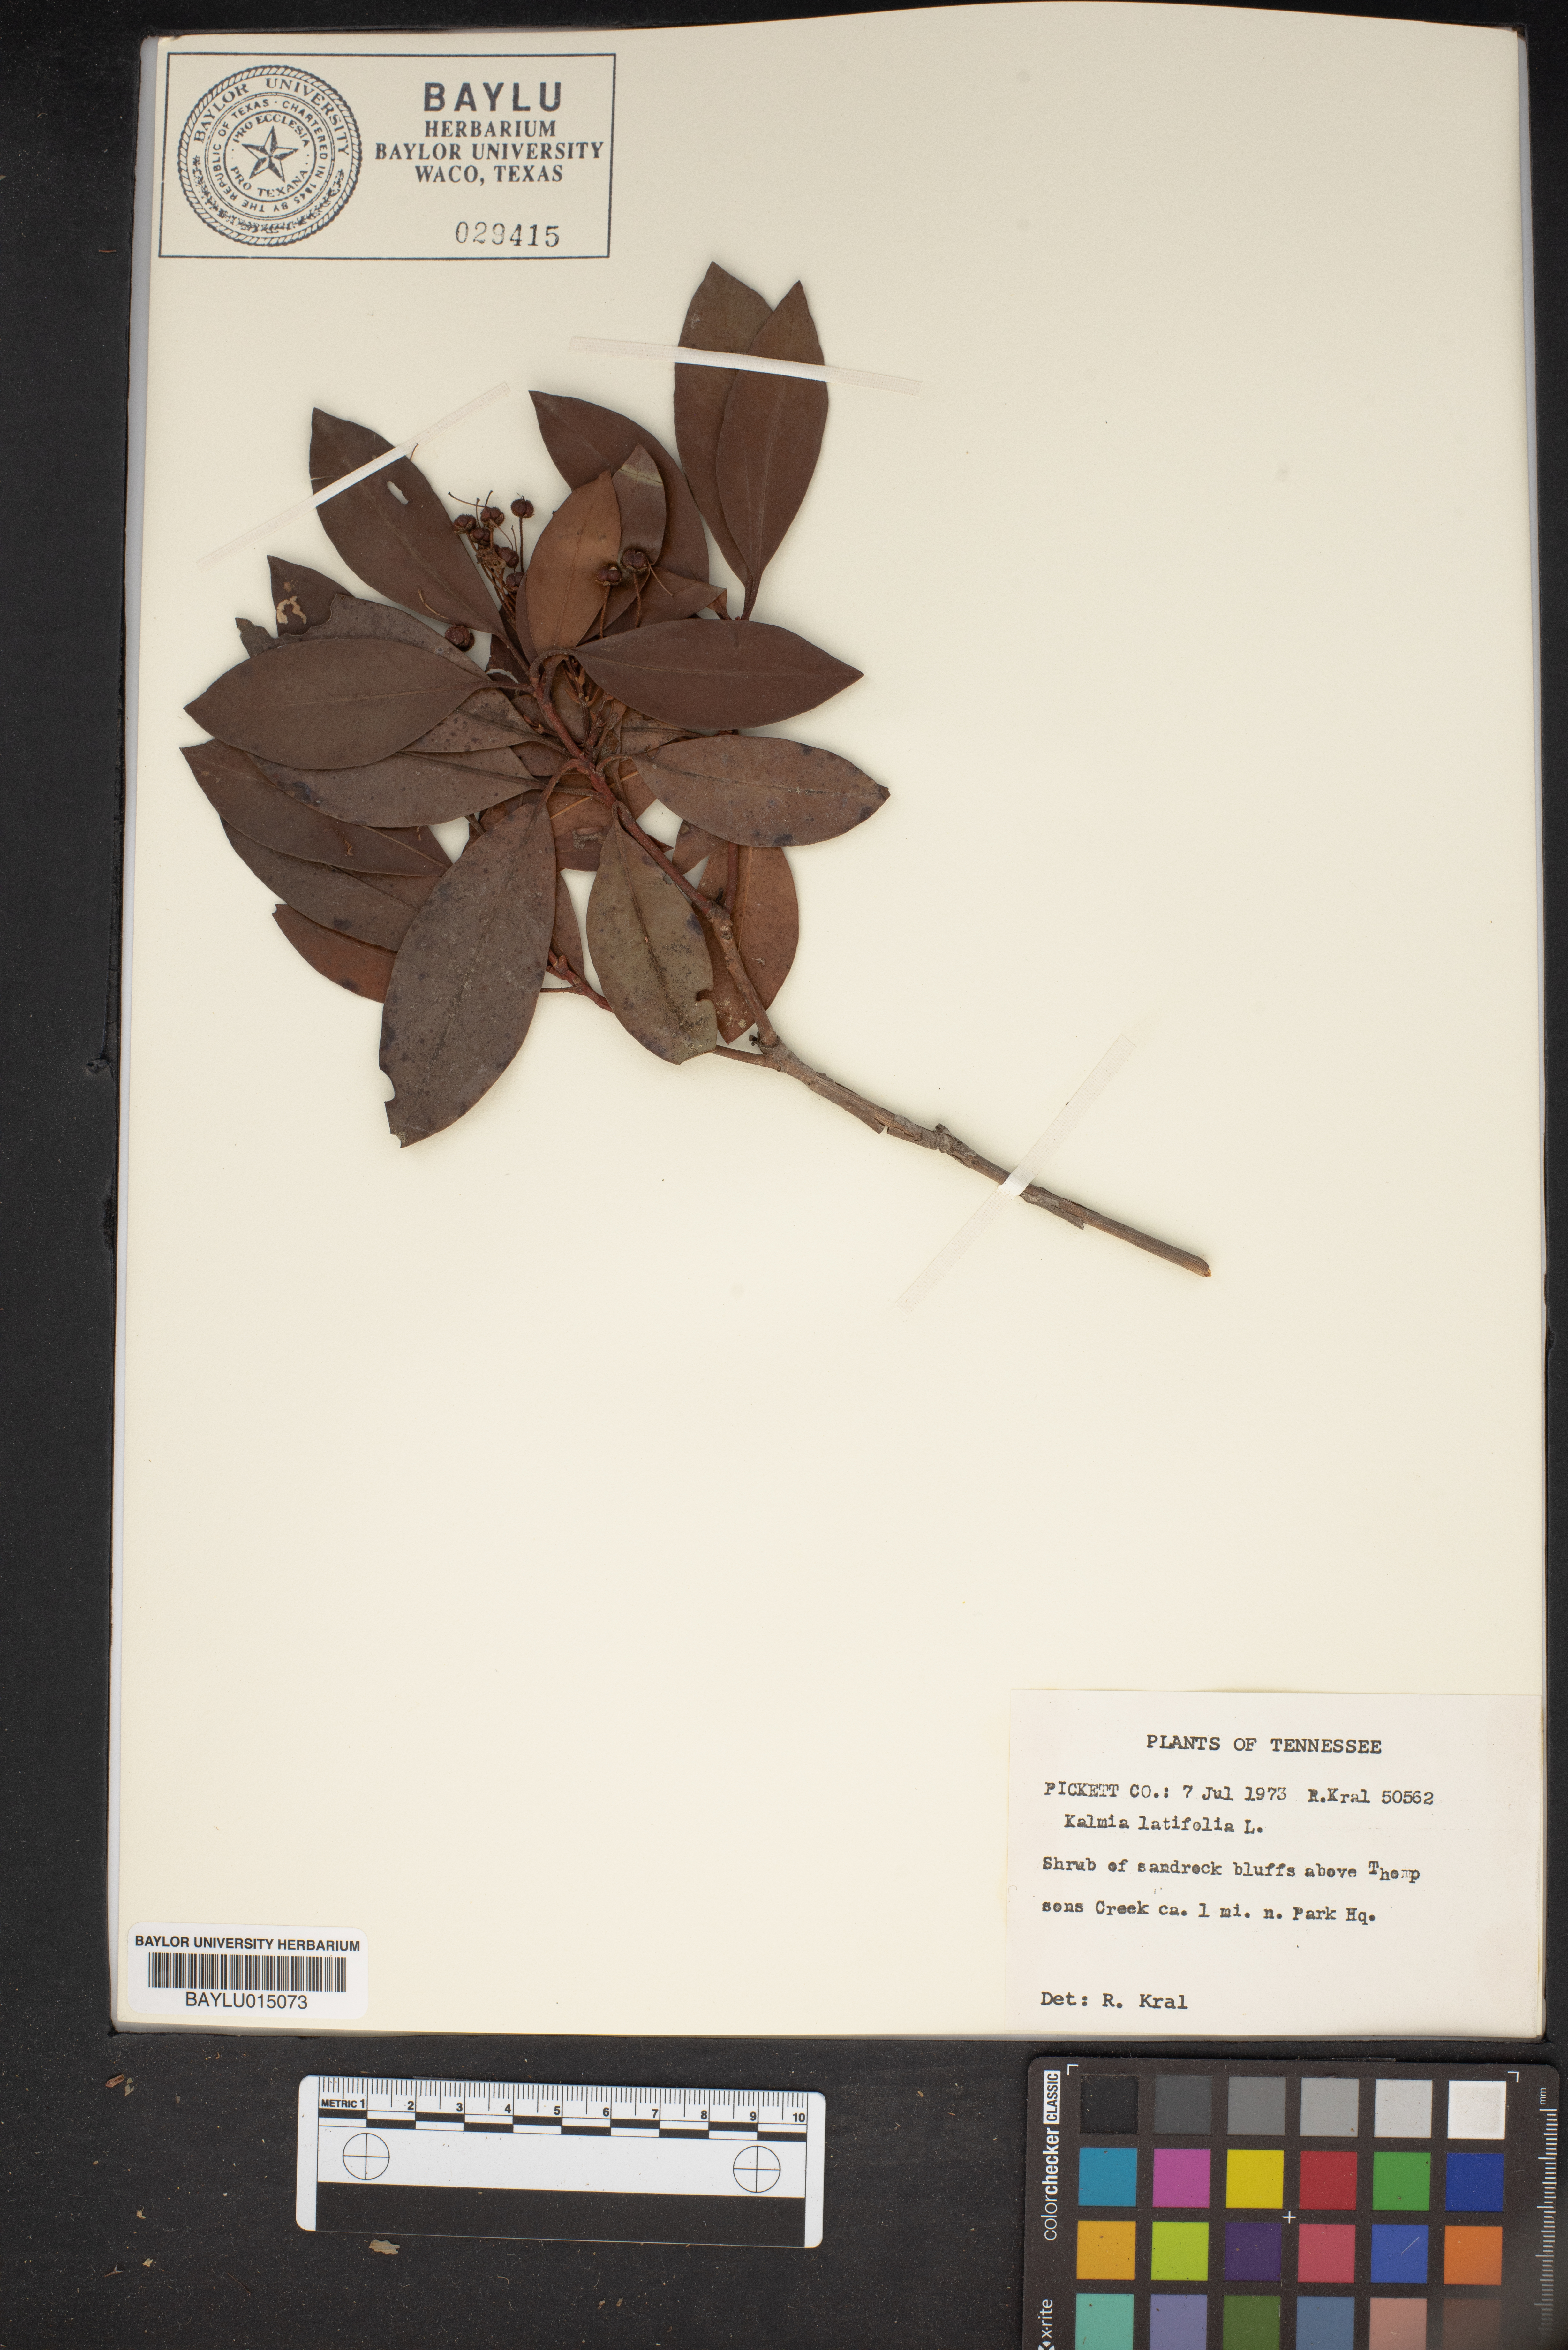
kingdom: Plantae
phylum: Tracheophyta
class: Magnoliopsida
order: Ericales
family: Ericaceae
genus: Kalmia
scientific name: Kalmia latifolia
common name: Mountain-laurel
